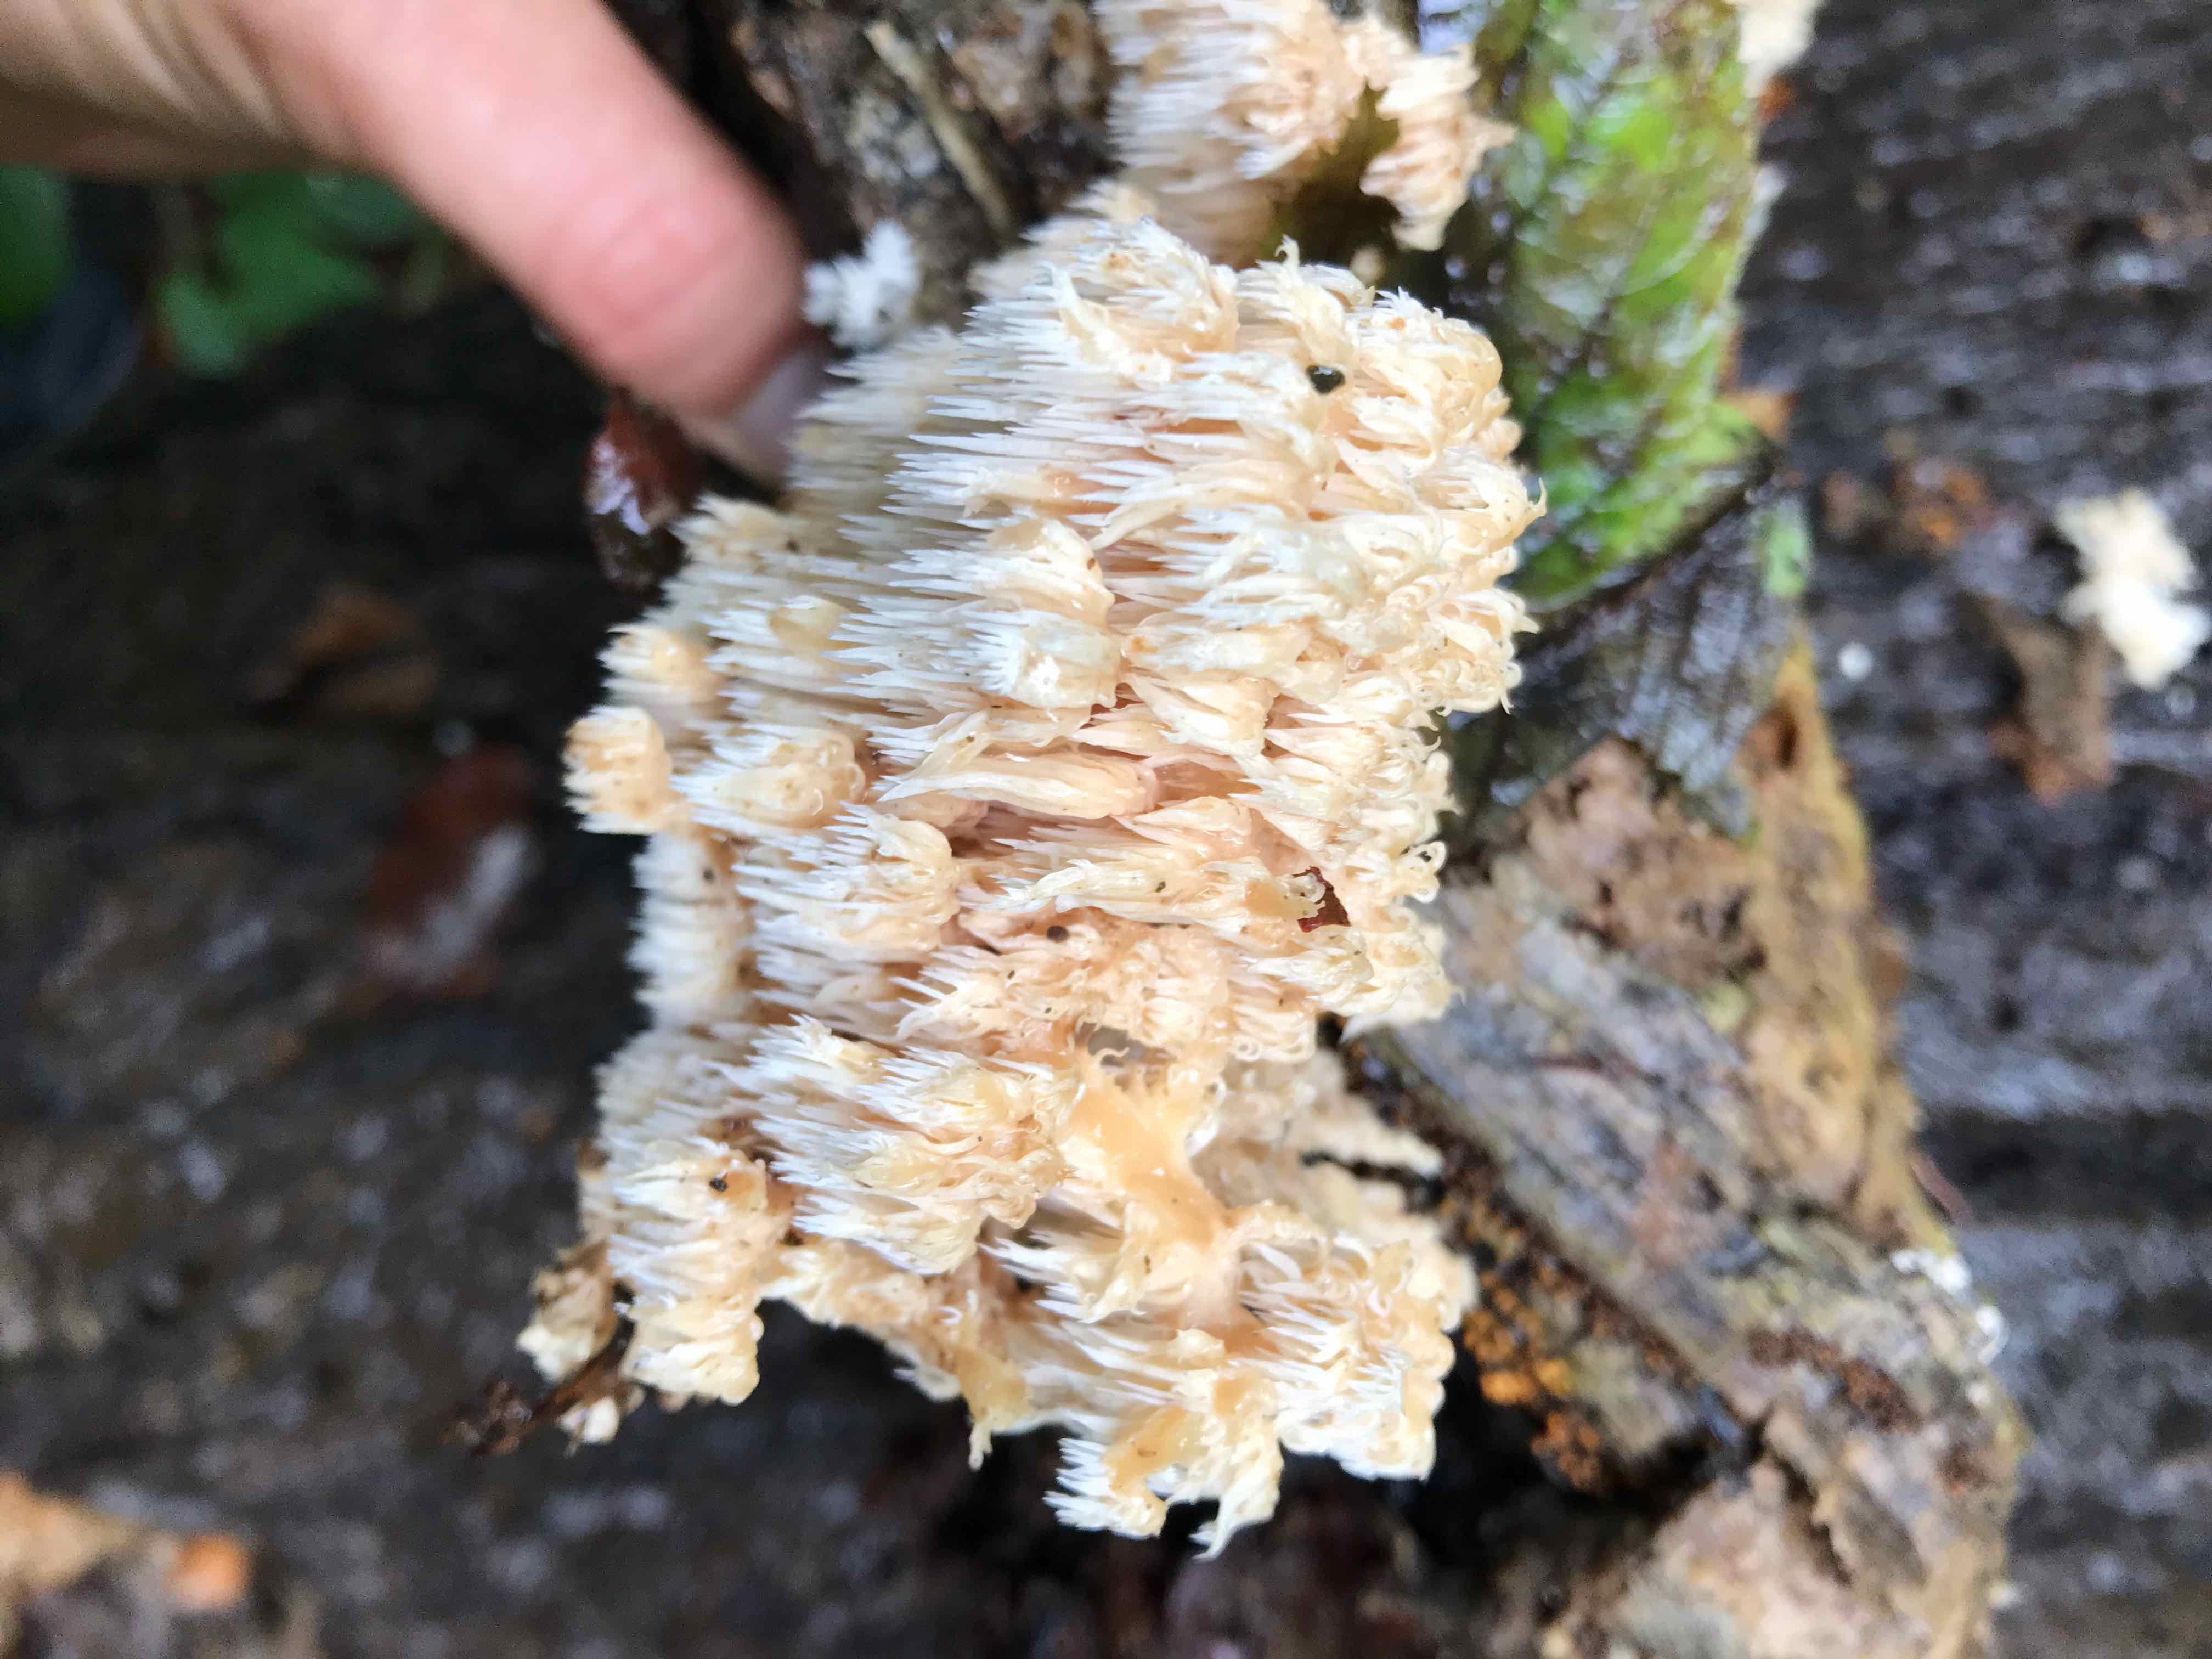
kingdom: Fungi
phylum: Basidiomycota
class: Agaricomycetes
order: Russulales
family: Hericiaceae
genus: Hericium
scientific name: Hericium coralloides
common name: koralpigsvamp
